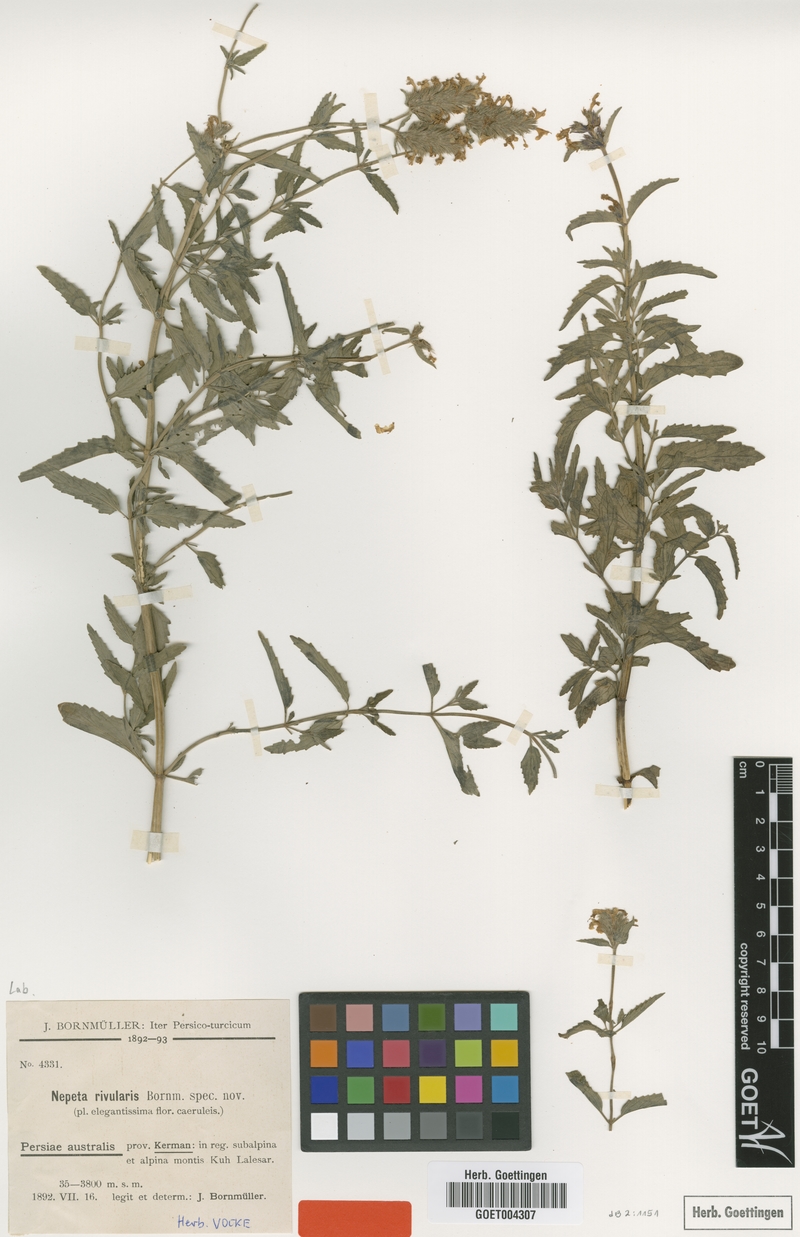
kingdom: Plantae
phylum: Tracheophyta
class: Magnoliopsida
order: Lamiales
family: Lamiaceae
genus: Nepeta
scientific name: Nepeta rivularis
